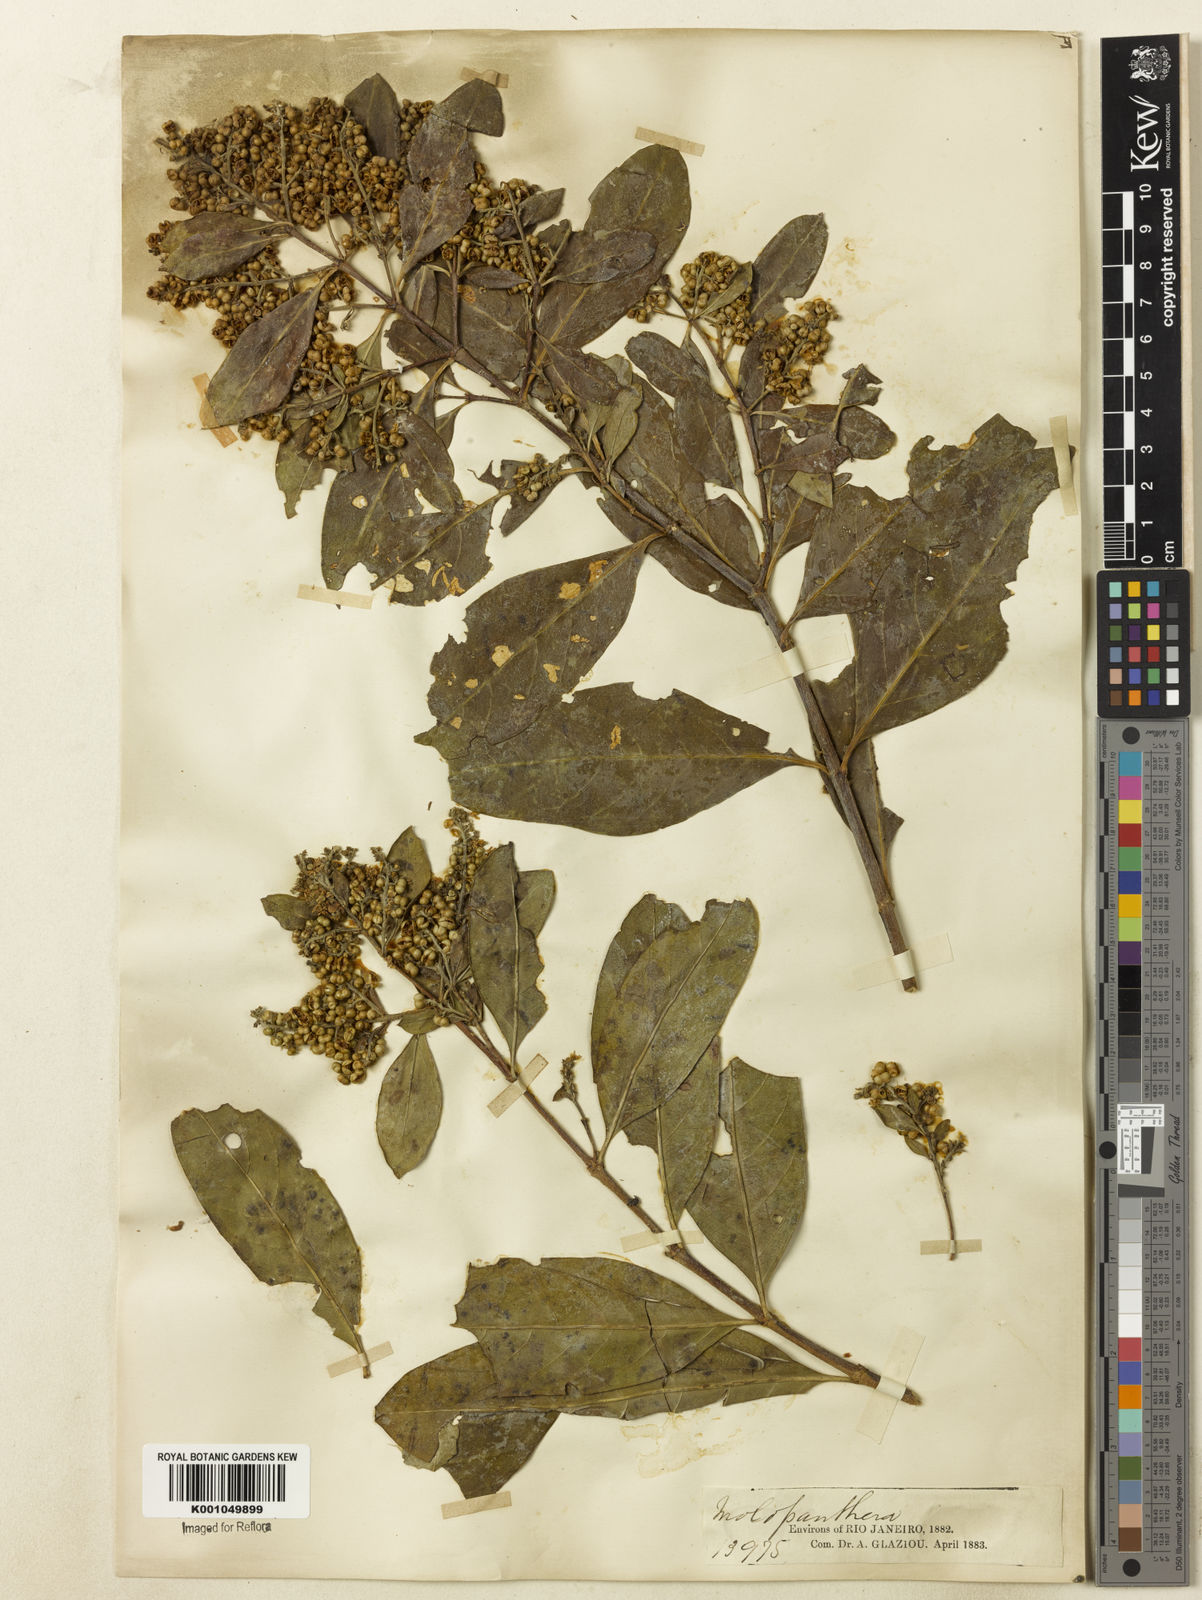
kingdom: Plantae
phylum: Tracheophyta
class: Magnoliopsida
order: Gentianales
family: Rubiaceae
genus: Molopanthera
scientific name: Molopanthera paniculata
